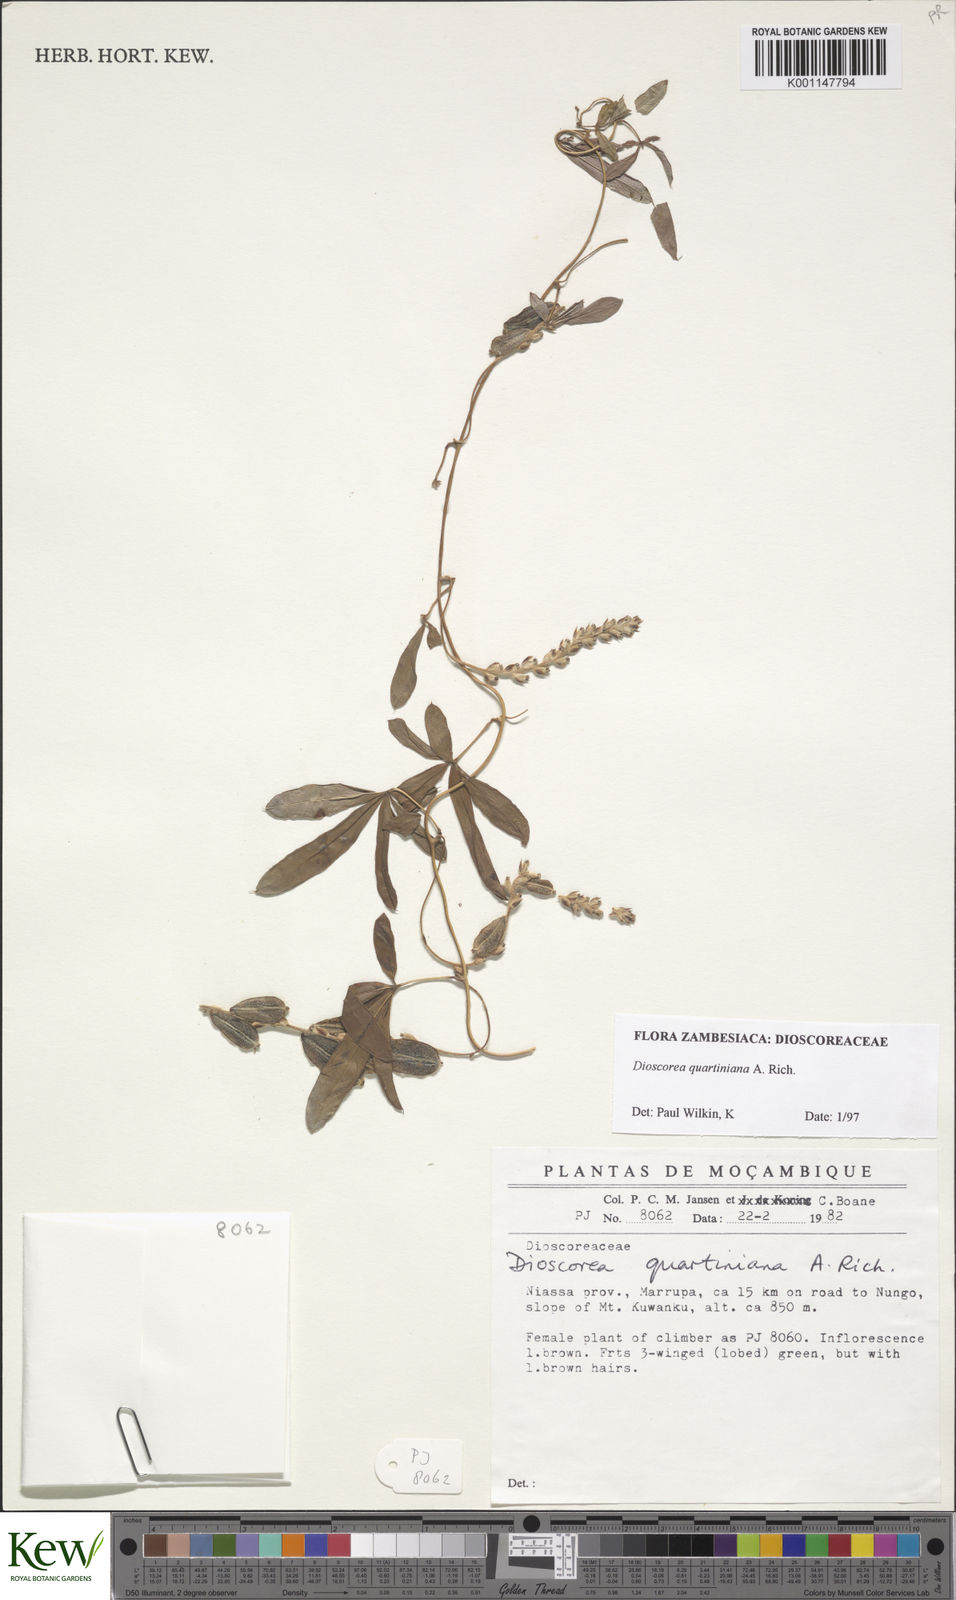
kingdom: Plantae
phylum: Tracheophyta
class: Liliopsida
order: Dioscoreales
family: Dioscoreaceae
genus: Dioscorea
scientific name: Dioscorea quartiniana
